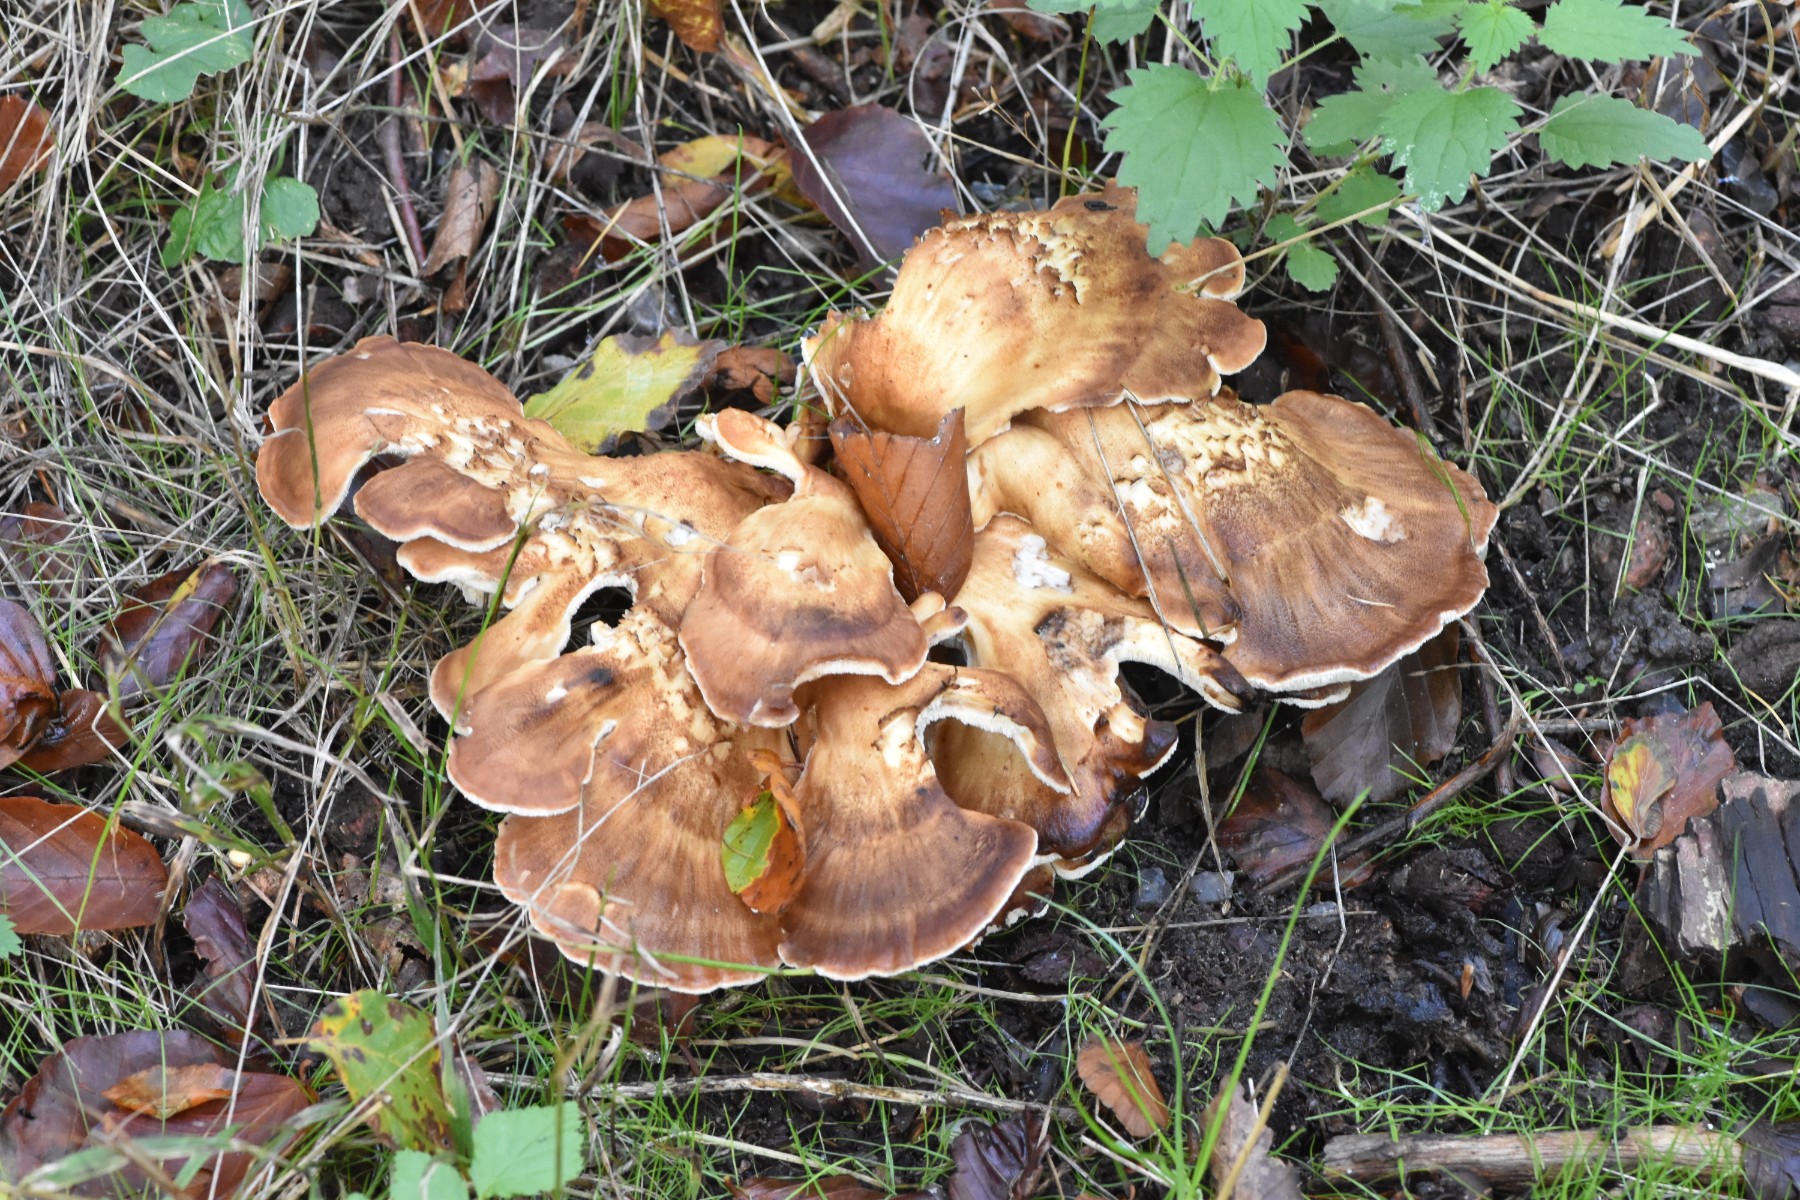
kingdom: Fungi
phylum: Basidiomycota
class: Agaricomycetes
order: Polyporales
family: Meripilaceae
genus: Meripilus
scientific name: Meripilus giganteus
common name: kæmpeporesvamp
